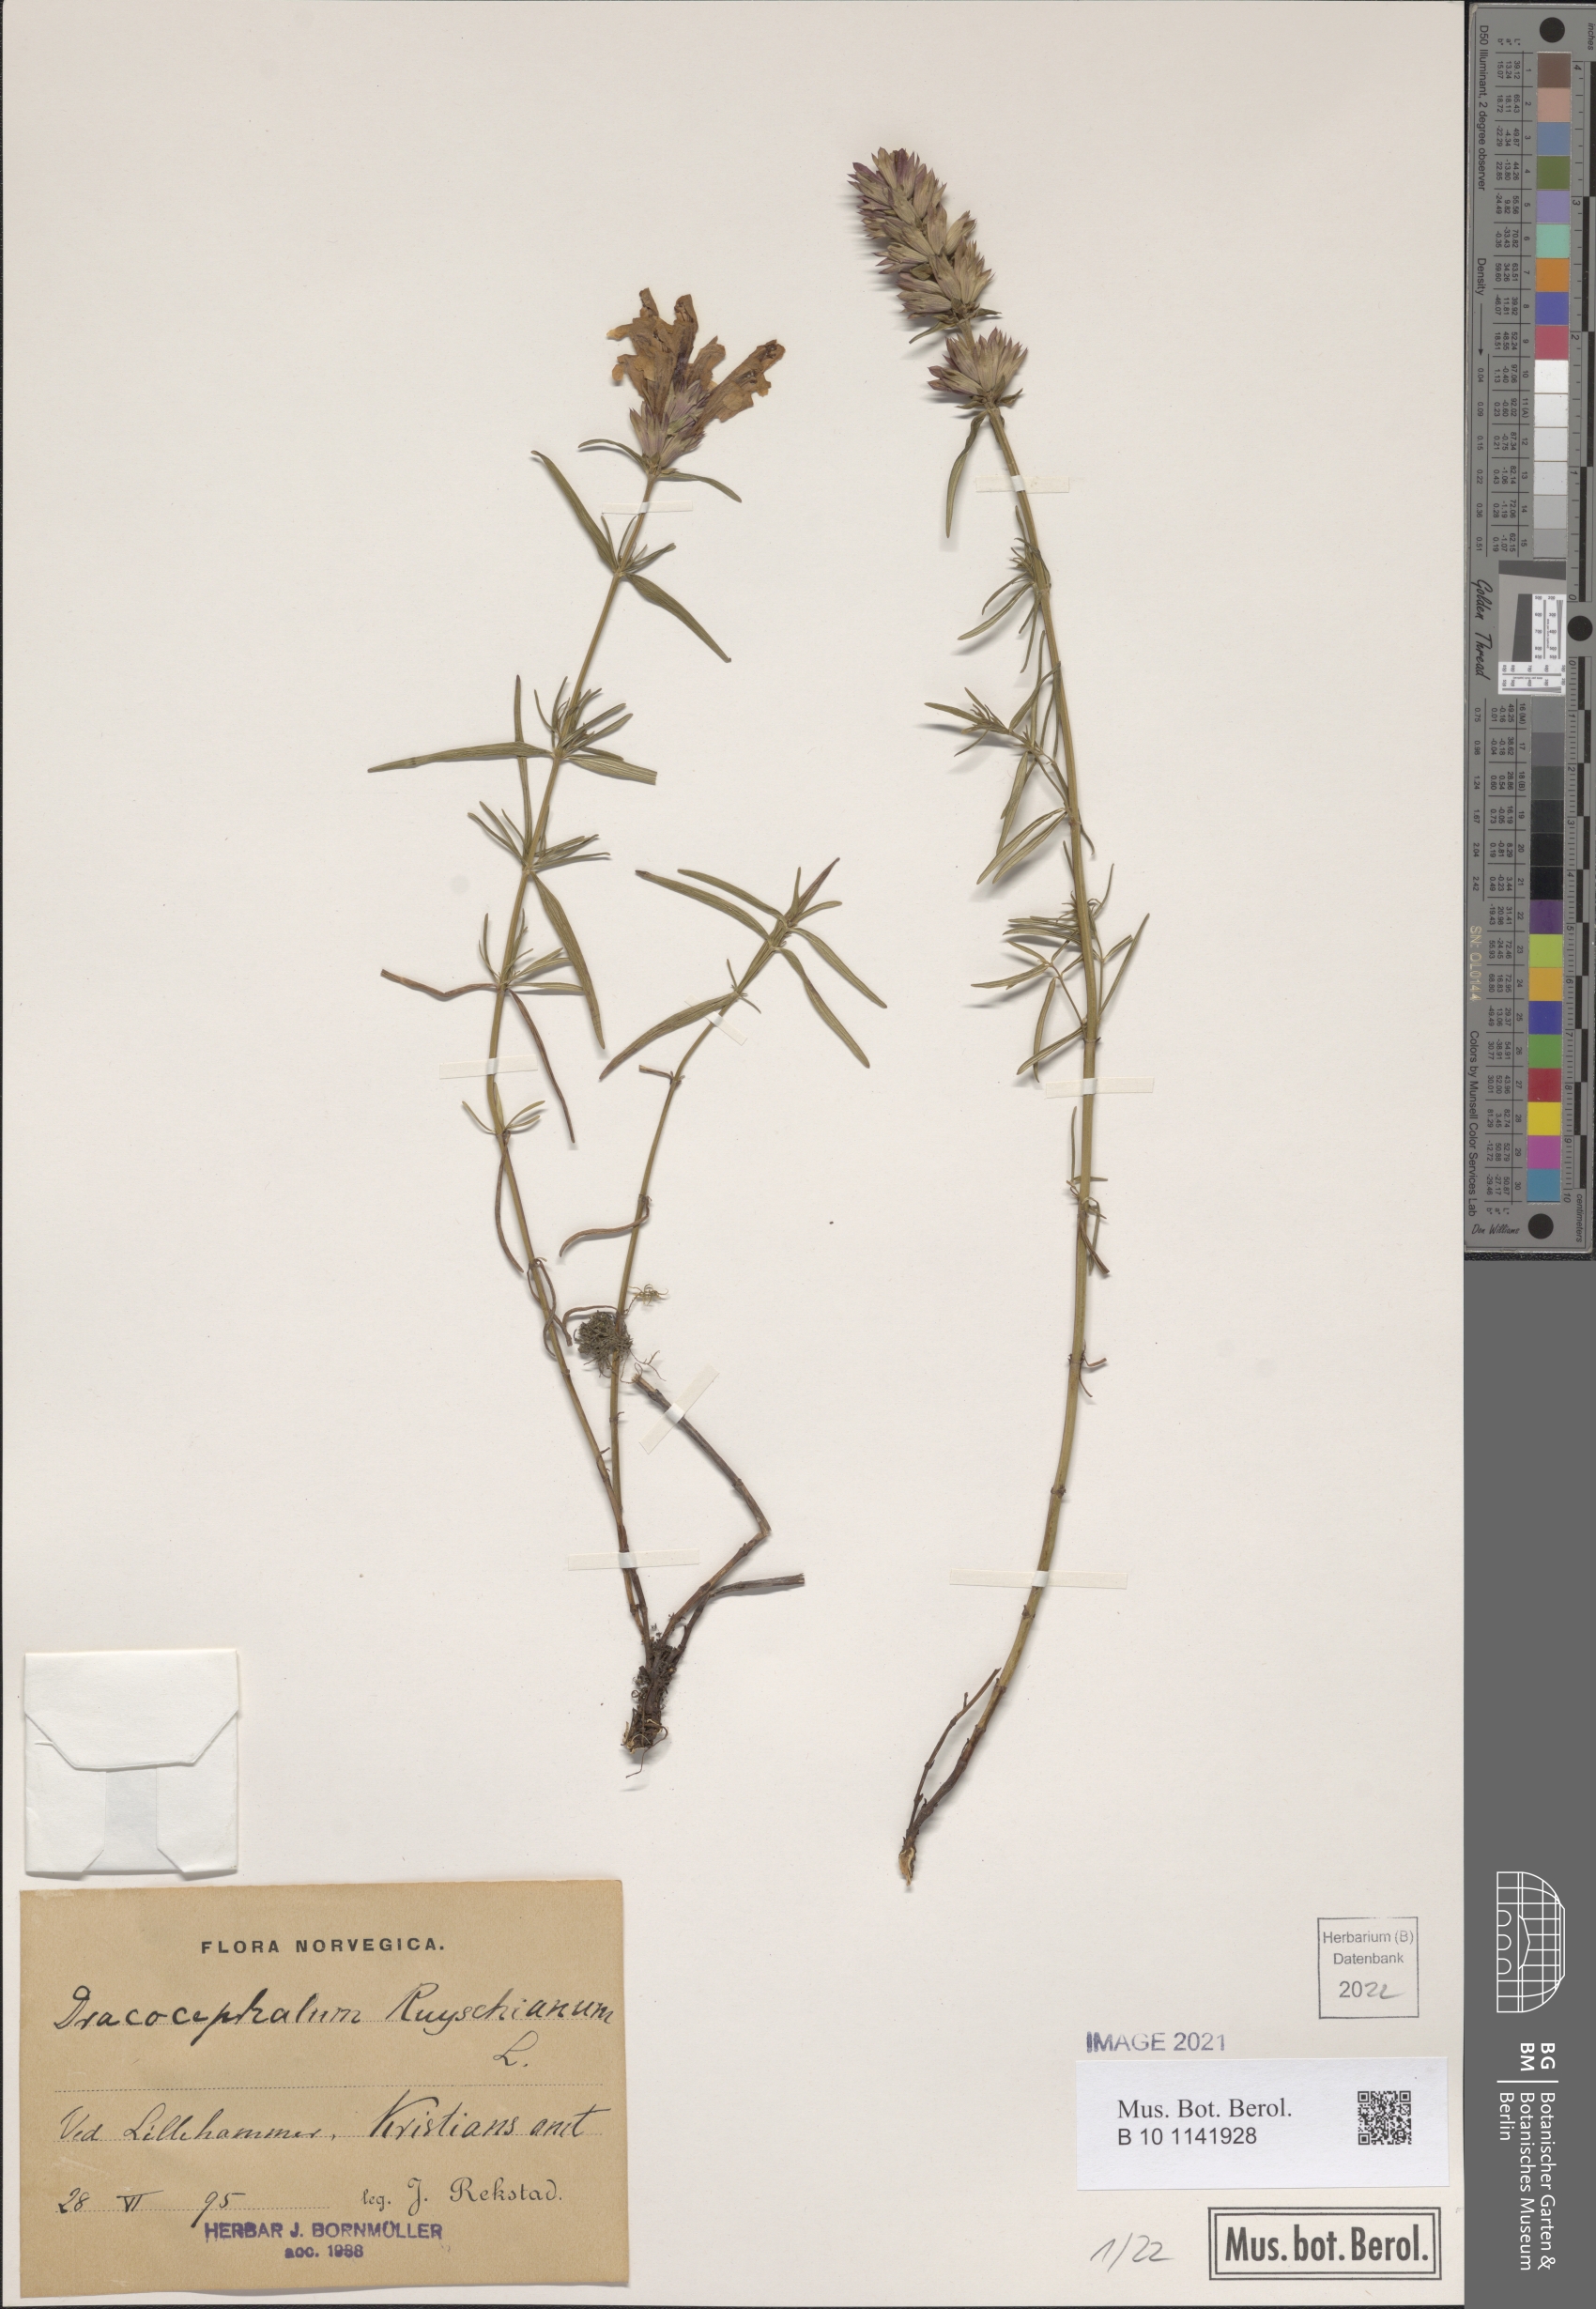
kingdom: Plantae
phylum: Tracheophyta
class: Magnoliopsida
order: Lamiales
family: Lamiaceae
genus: Dracocephalum
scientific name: Dracocephalum ruyschiana
